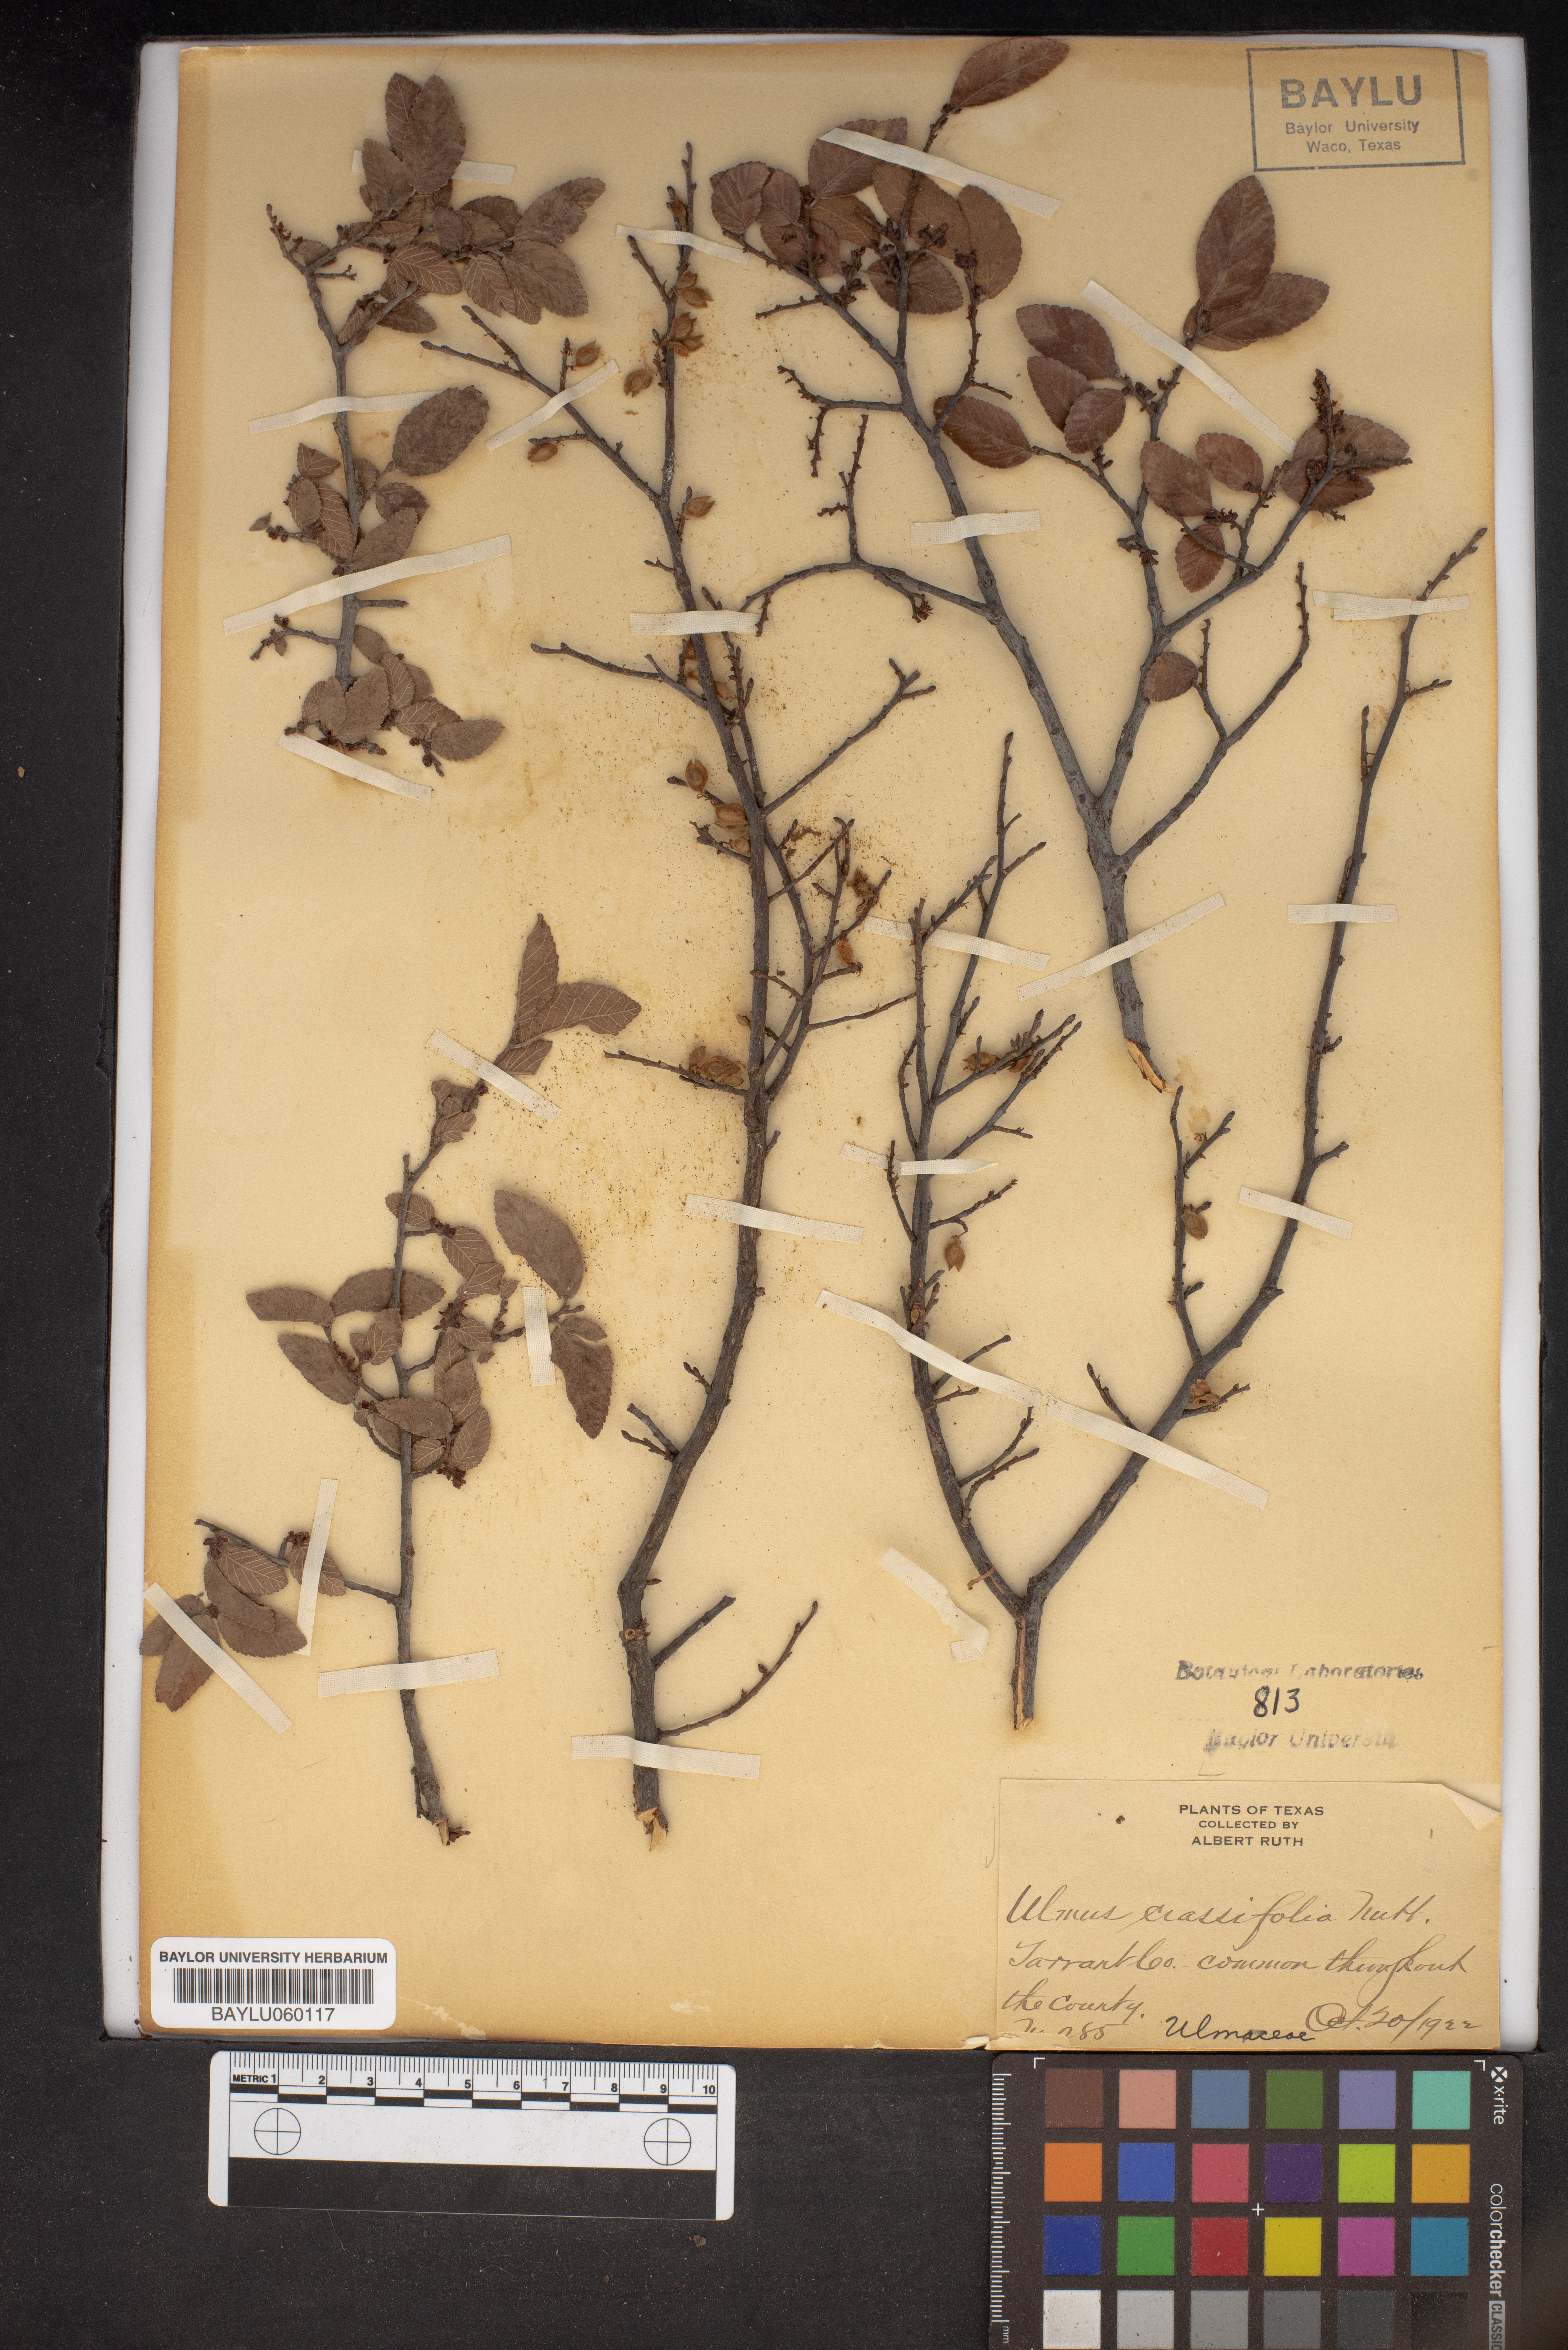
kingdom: Plantae
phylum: Tracheophyta
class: Magnoliopsida
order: Rosales
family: Ulmaceae
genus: Ulmus
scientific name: Ulmus crassifolia
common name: Basket elm
